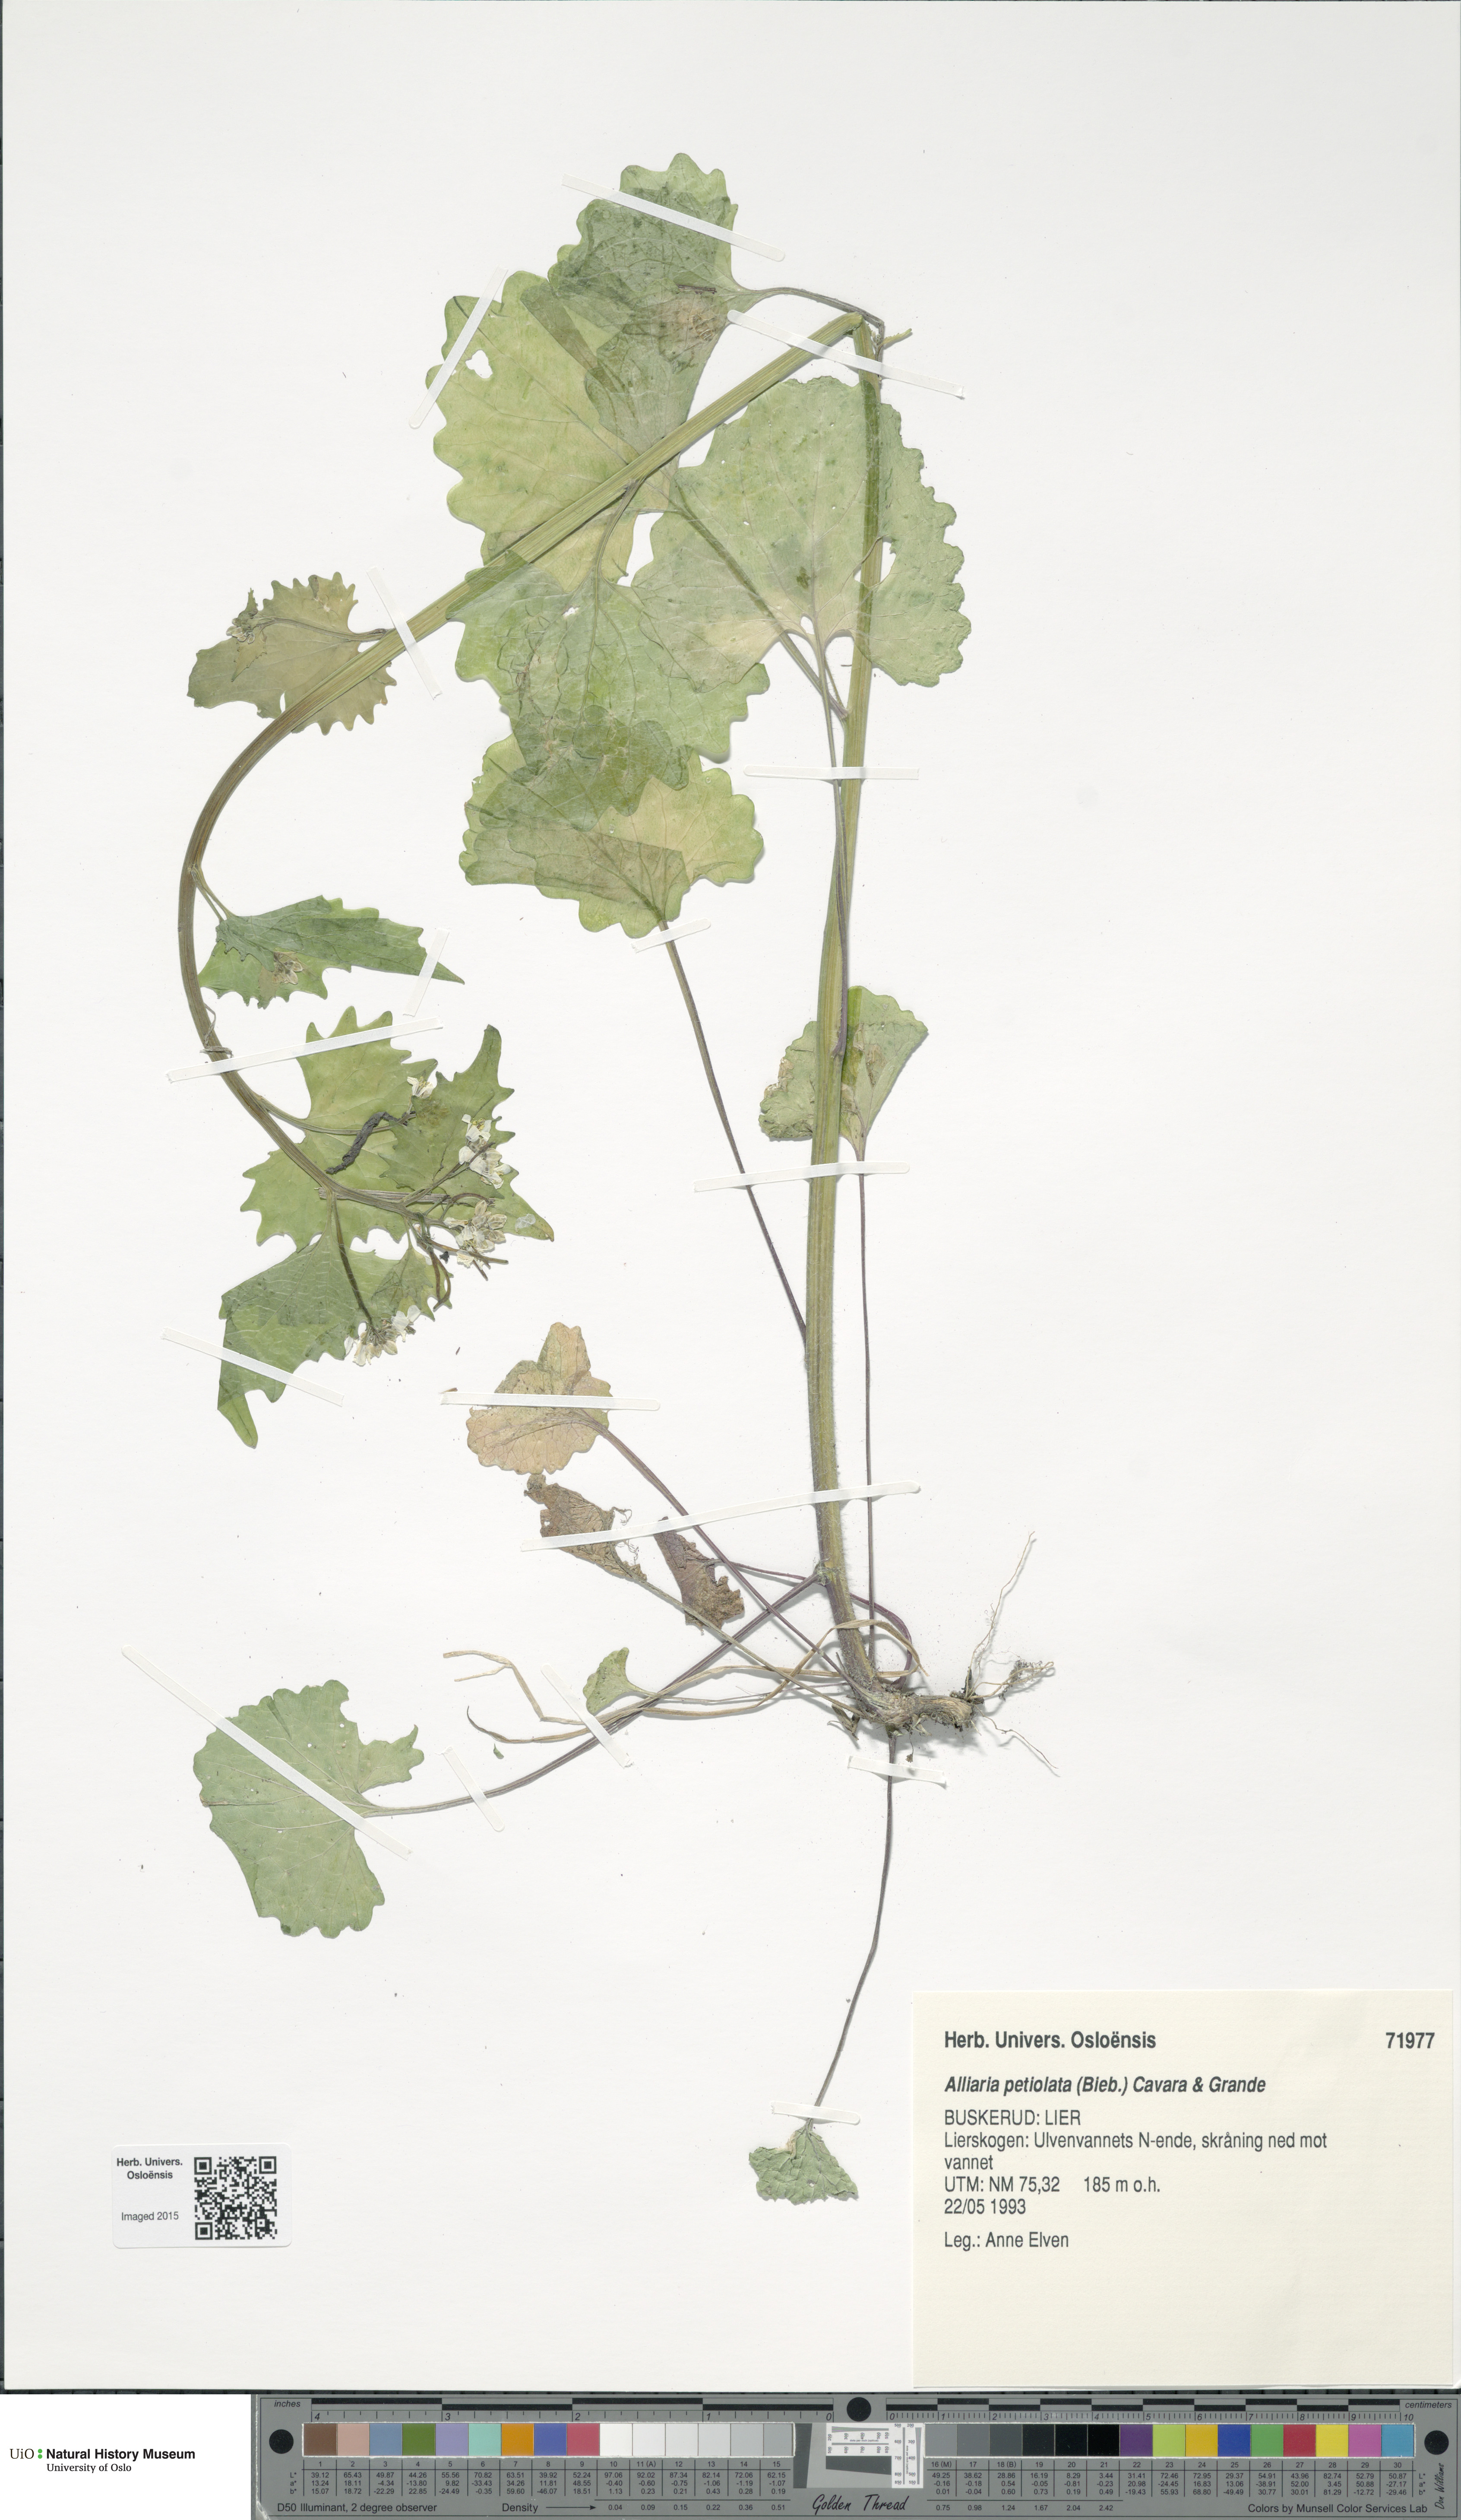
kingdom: Plantae
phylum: Tracheophyta
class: Magnoliopsida
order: Brassicales
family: Brassicaceae
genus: Alliaria
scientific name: Alliaria petiolata
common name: Garlic mustard
